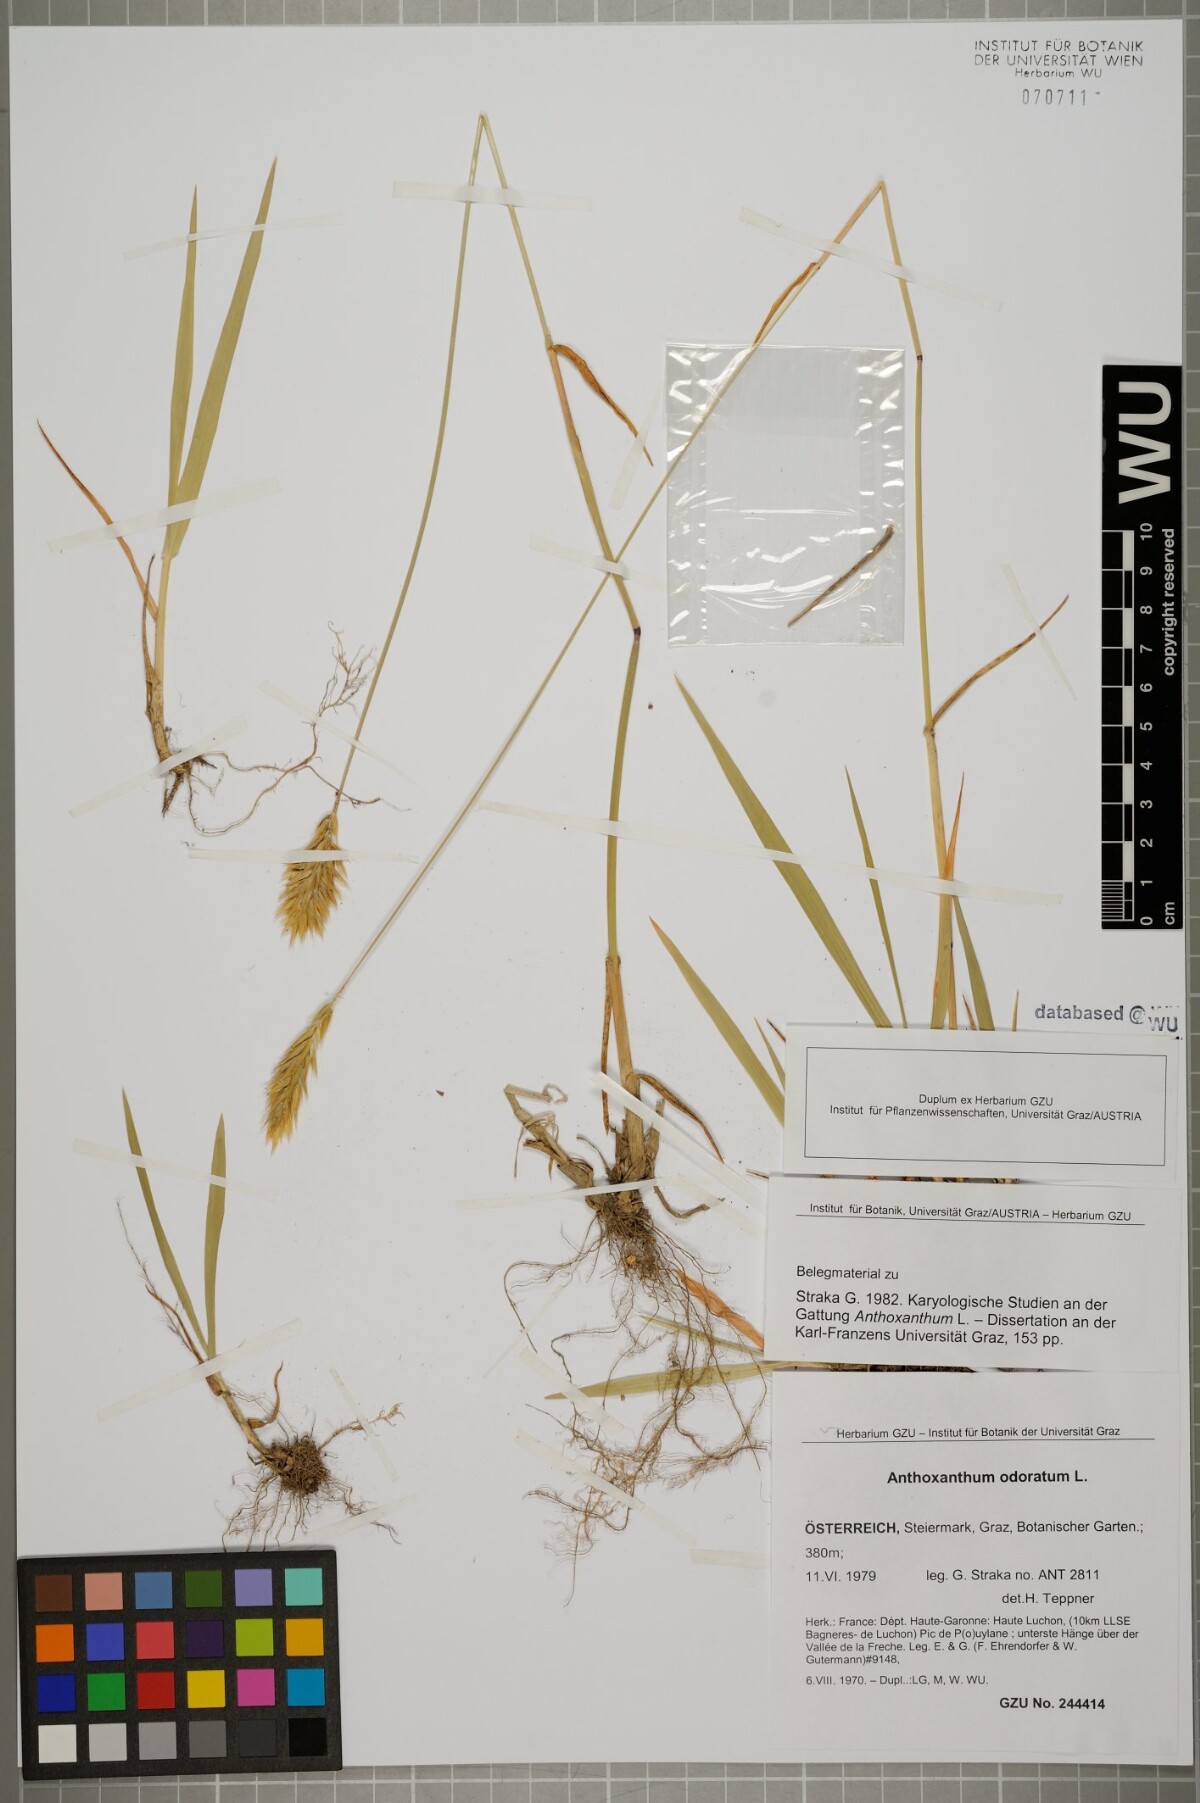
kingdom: Plantae
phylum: Tracheophyta
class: Liliopsida
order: Poales
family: Poaceae
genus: Anthoxanthum
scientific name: Anthoxanthum odoratum
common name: Sweet vernalgrass
